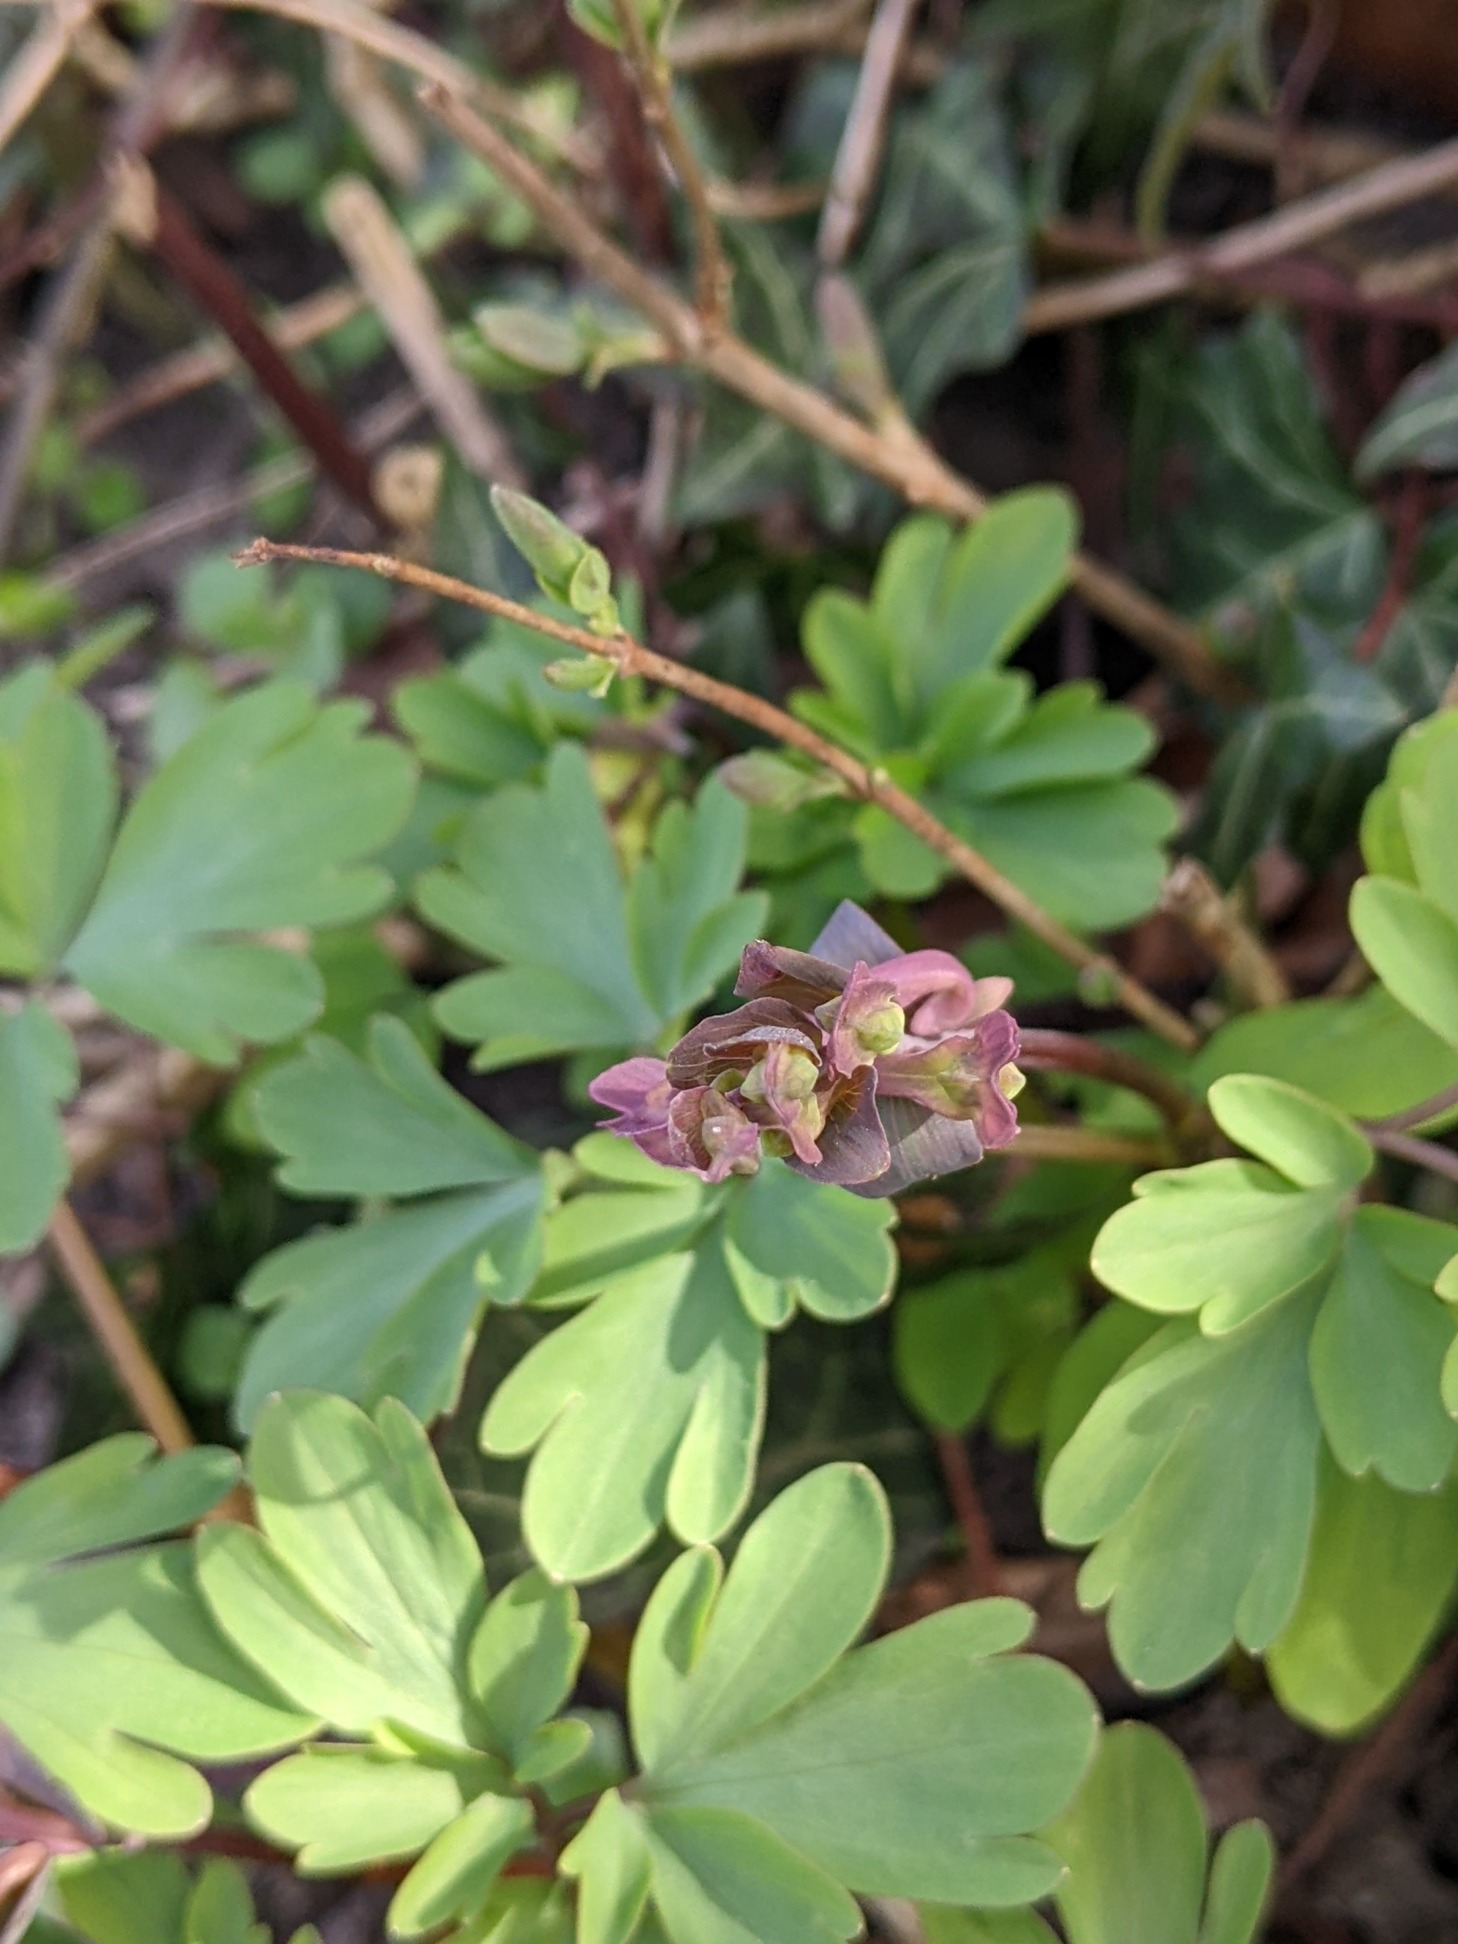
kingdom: Plantae
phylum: Tracheophyta
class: Magnoliopsida
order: Ranunculales
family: Papaveraceae
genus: Corydalis
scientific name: Corydalis cava
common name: Hulrodet lærkespore
